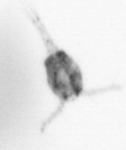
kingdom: Animalia
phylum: Arthropoda
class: Copepoda
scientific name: Copepoda
